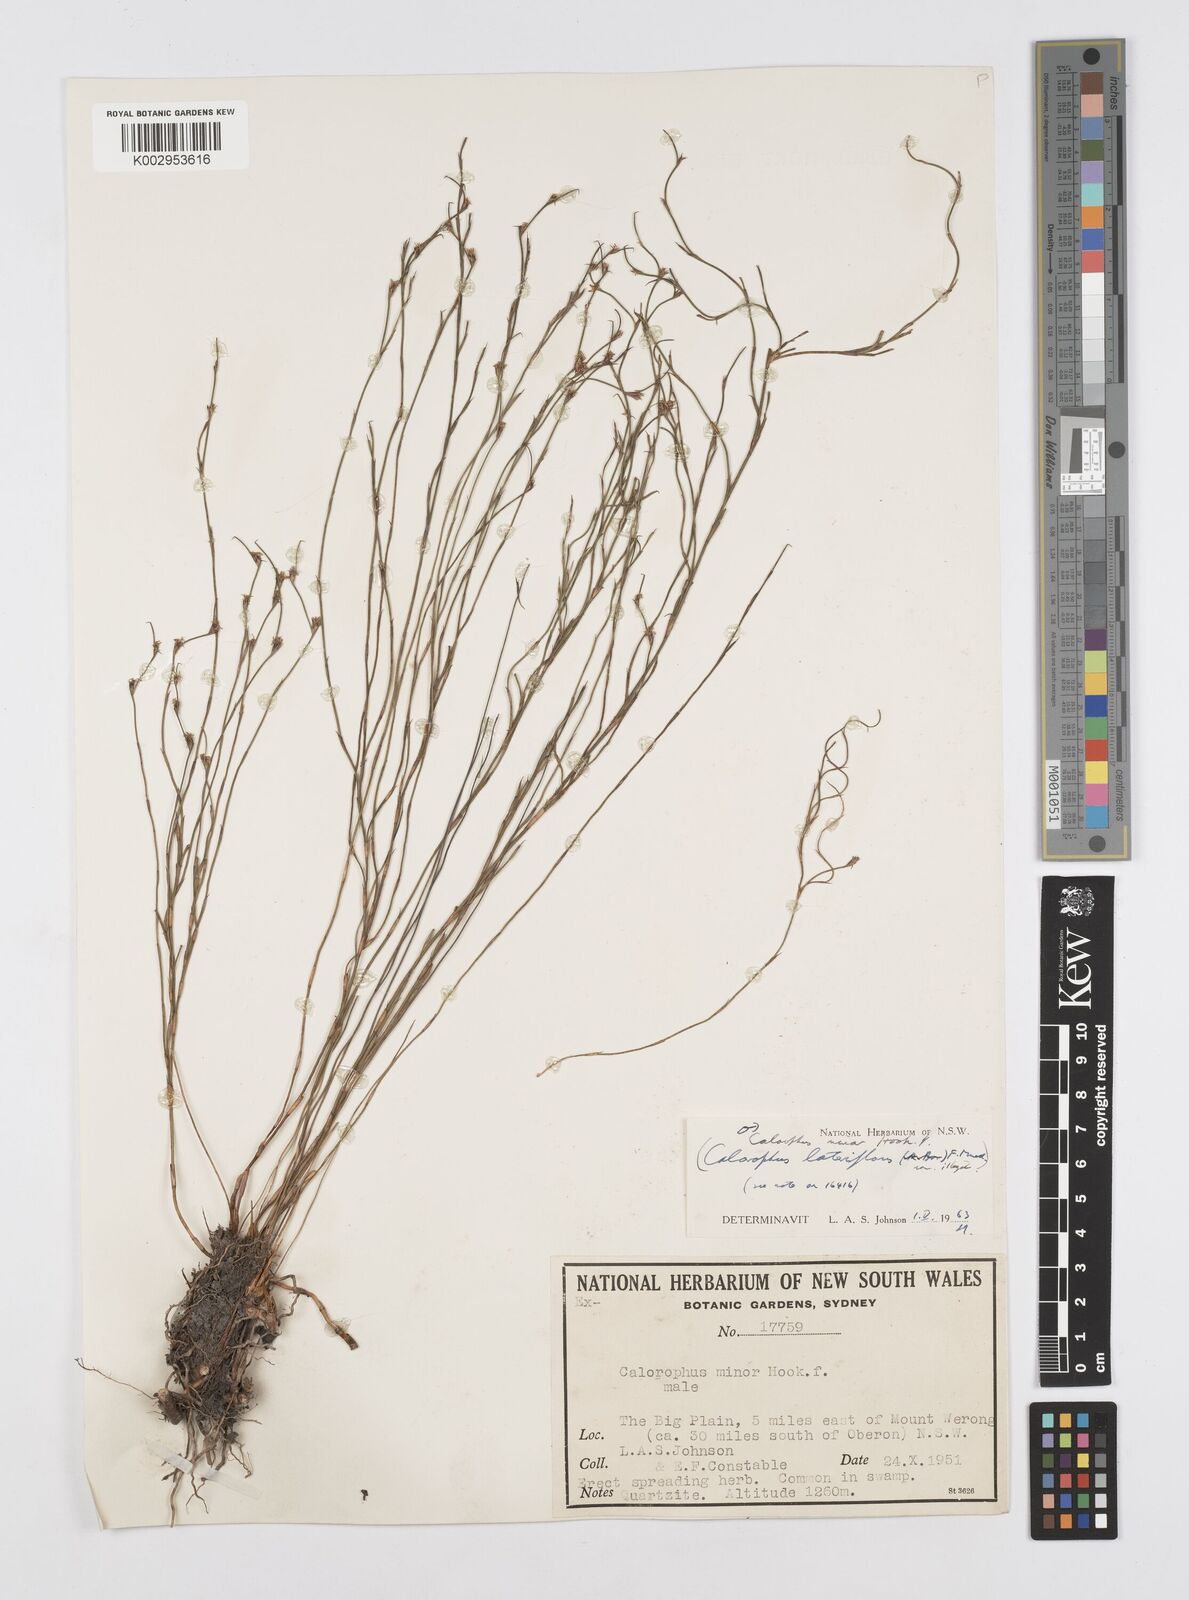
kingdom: Plantae
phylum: Tracheophyta
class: Liliopsida
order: Poales
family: Restionaceae
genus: Empodisma
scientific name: Empodisma minus
